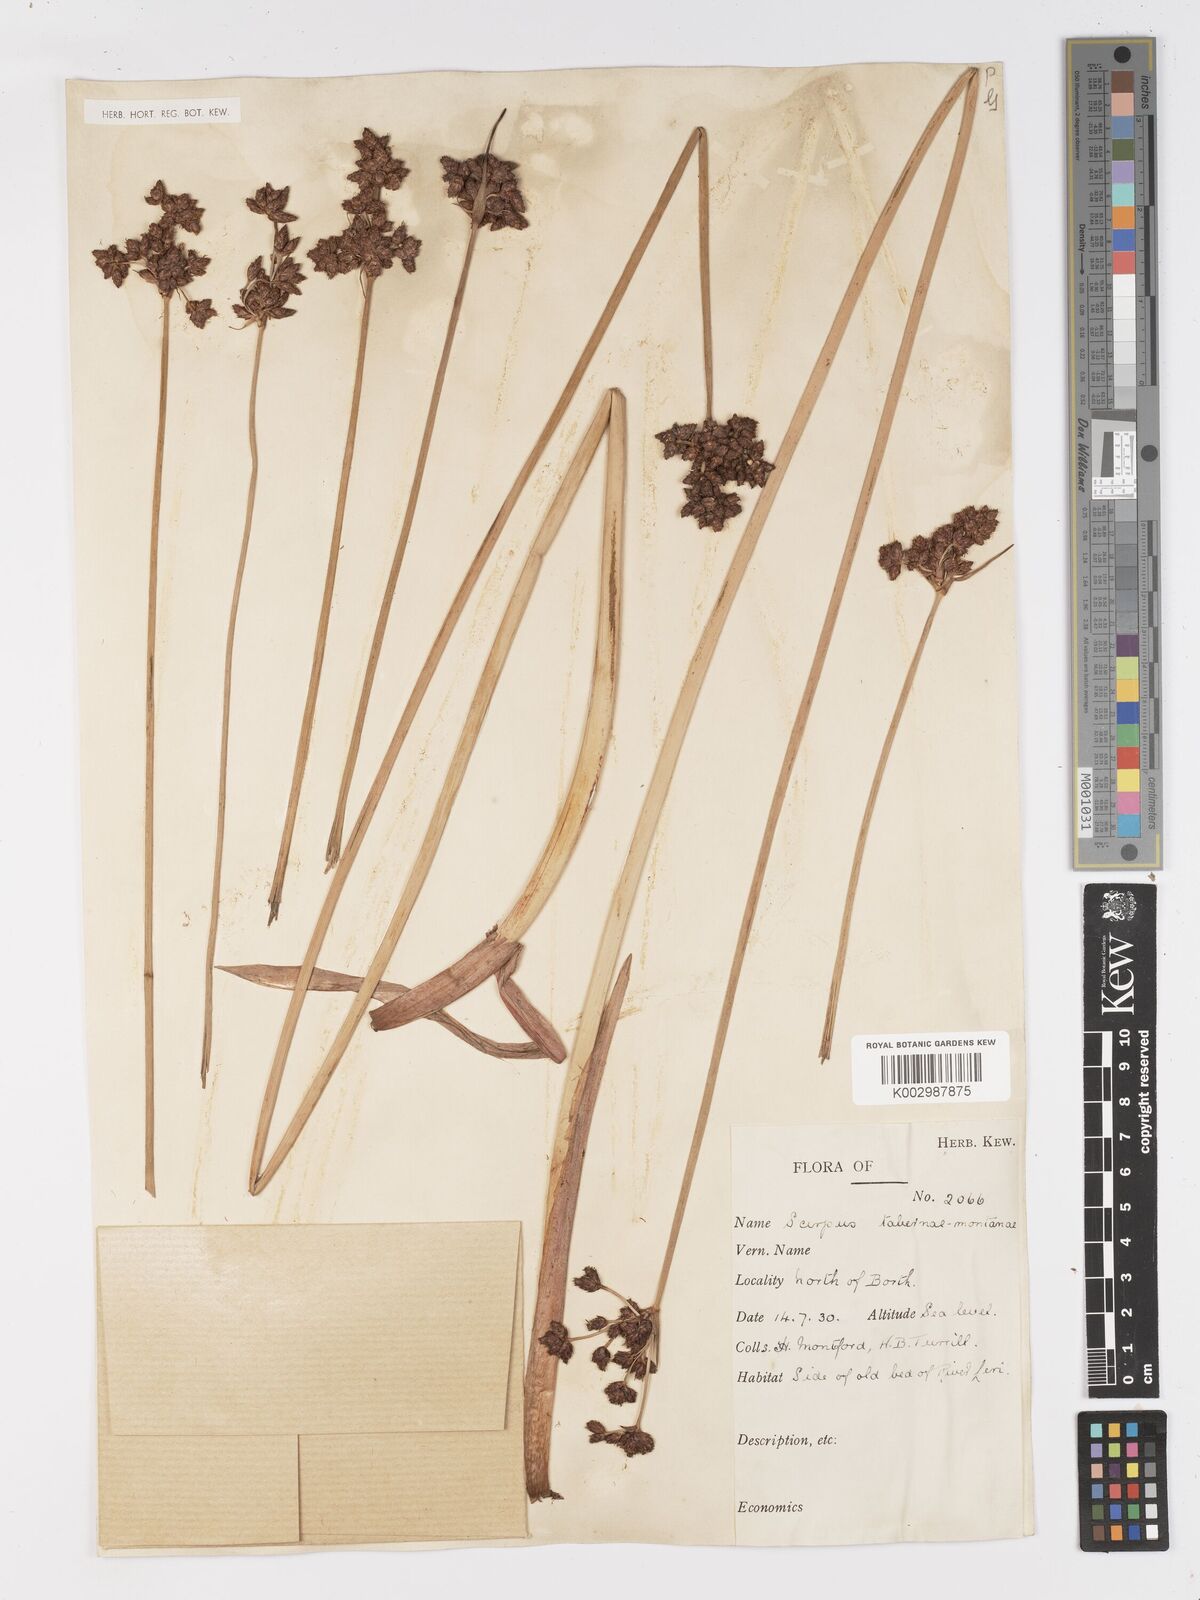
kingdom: Plantae
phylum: Tracheophyta
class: Liliopsida
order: Poales
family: Cyperaceae
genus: Schoenoplectus
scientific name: Schoenoplectus tabernaemontani
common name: Grey club-rush
